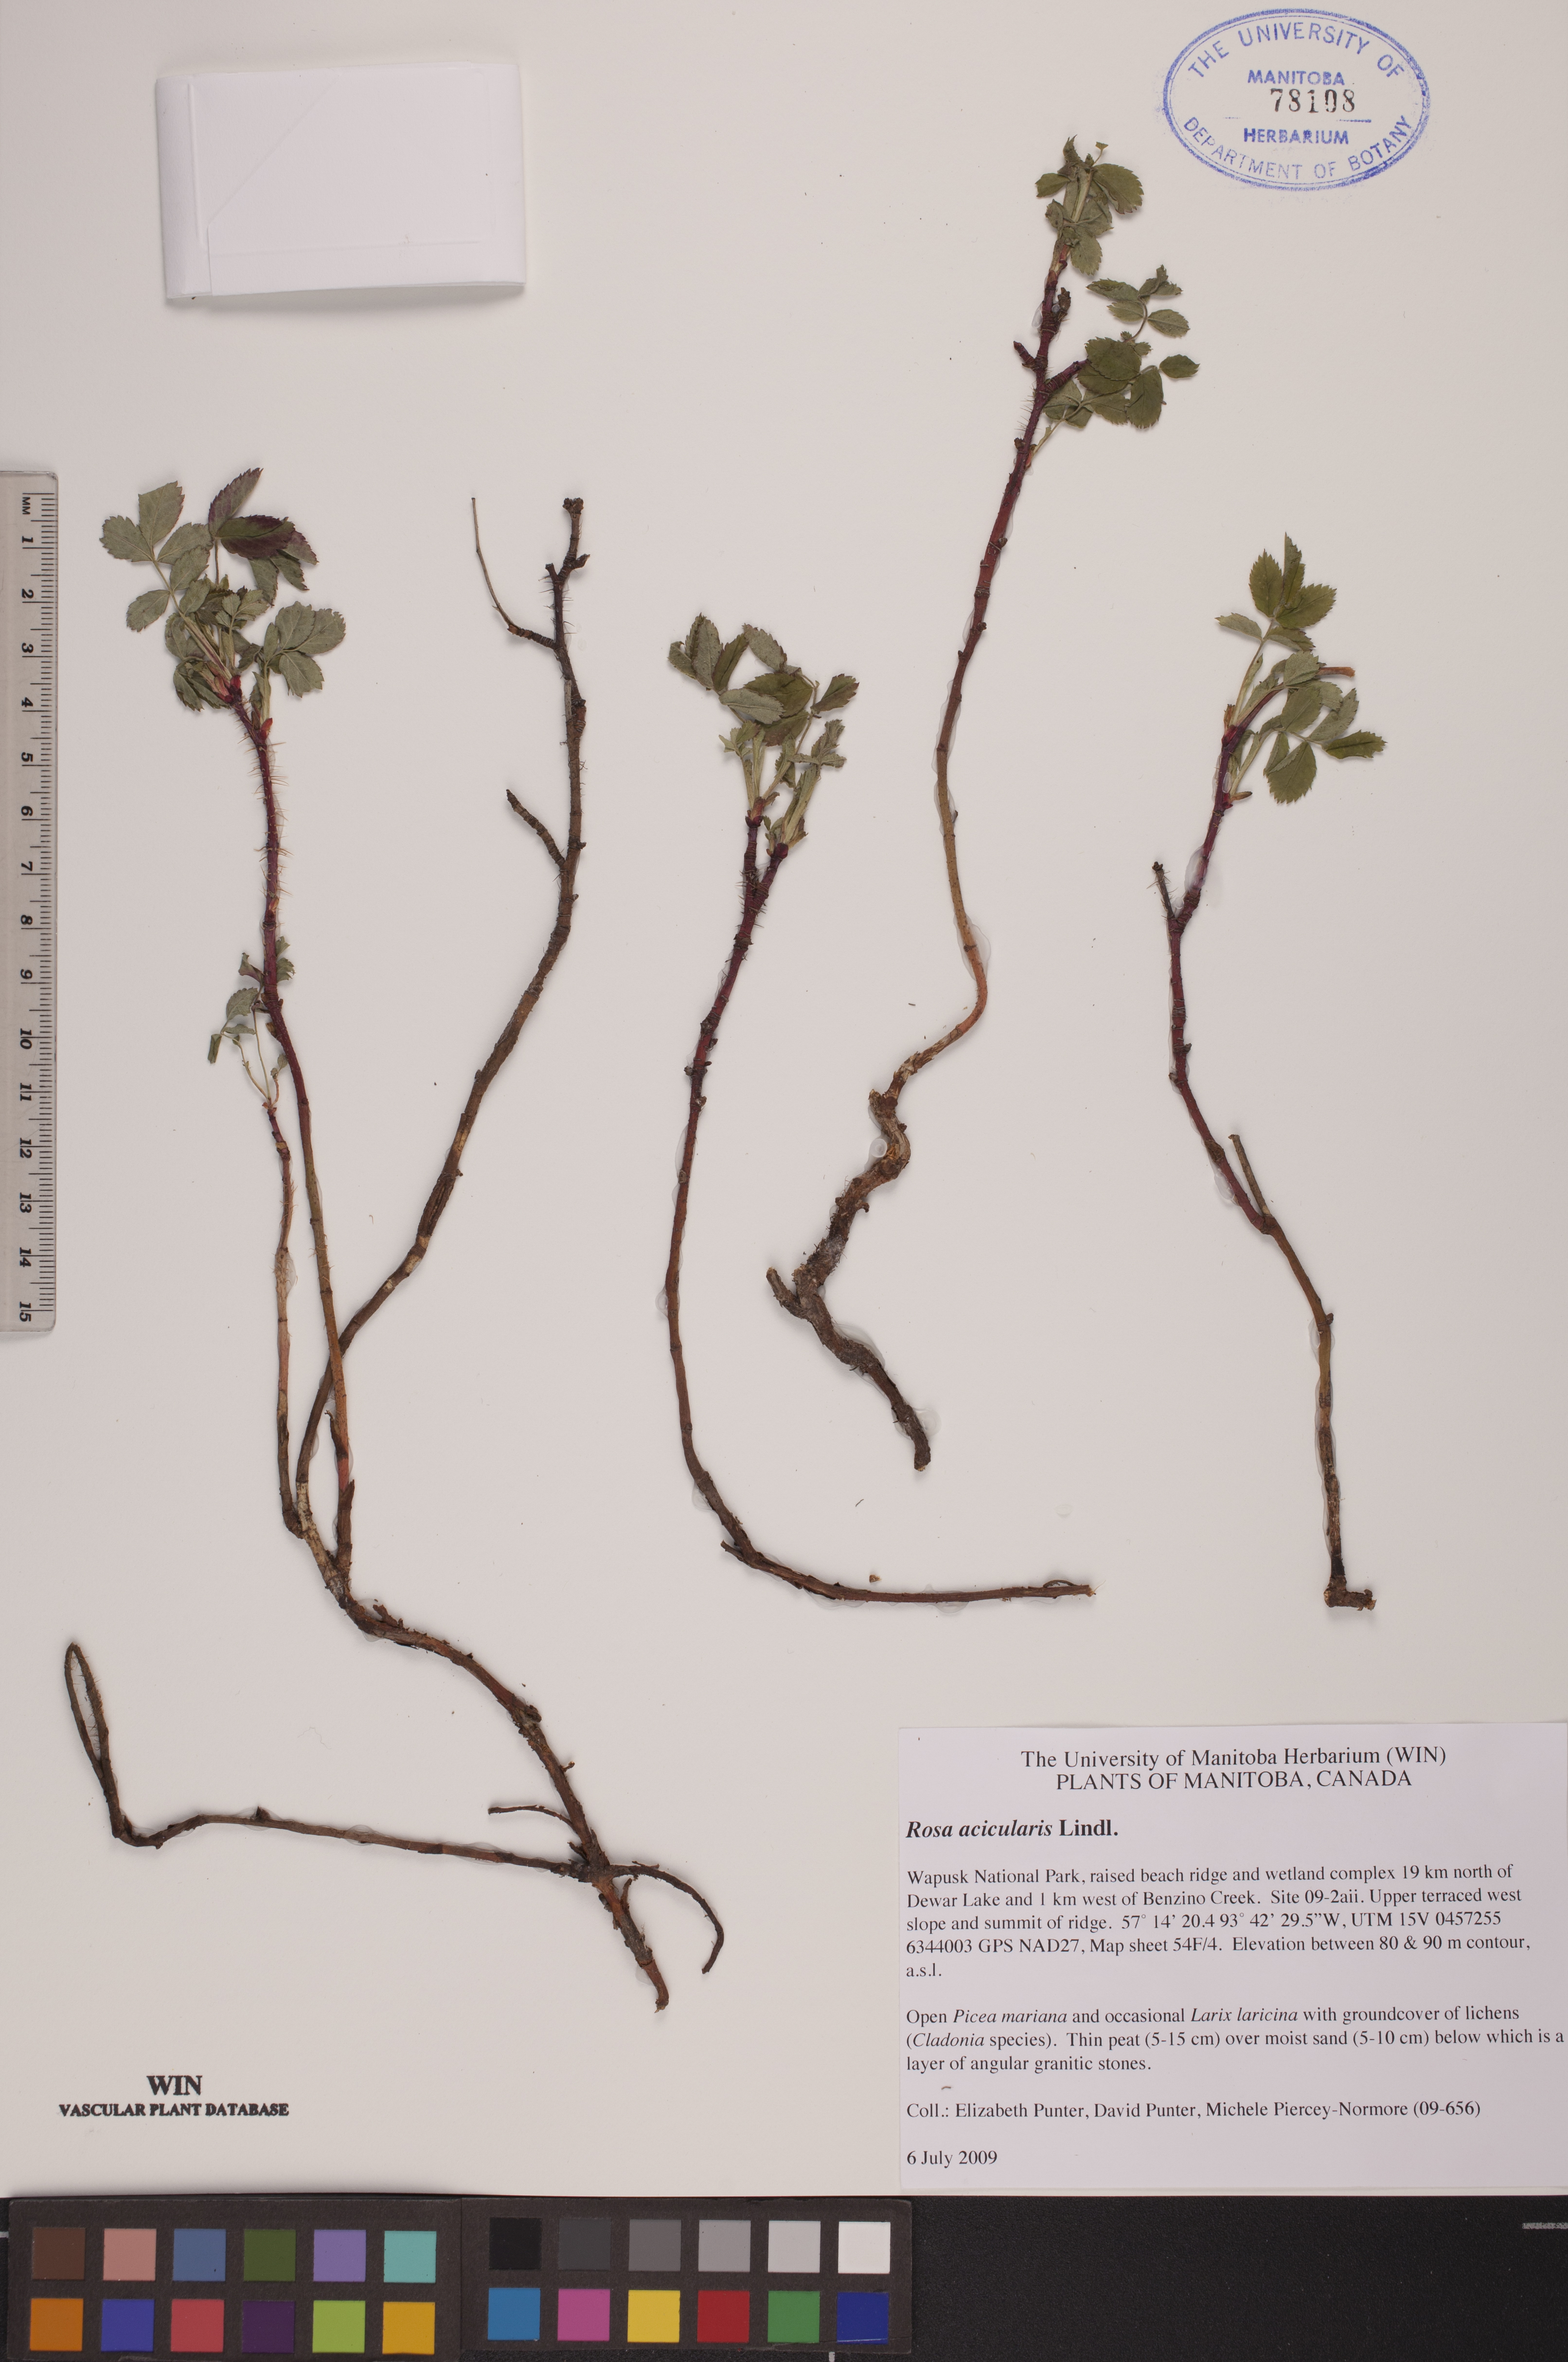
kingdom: Plantae
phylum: Tracheophyta
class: Magnoliopsida
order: Rosales
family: Rosaceae
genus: Rosa
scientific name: Rosa acicularis
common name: Prickly rose
